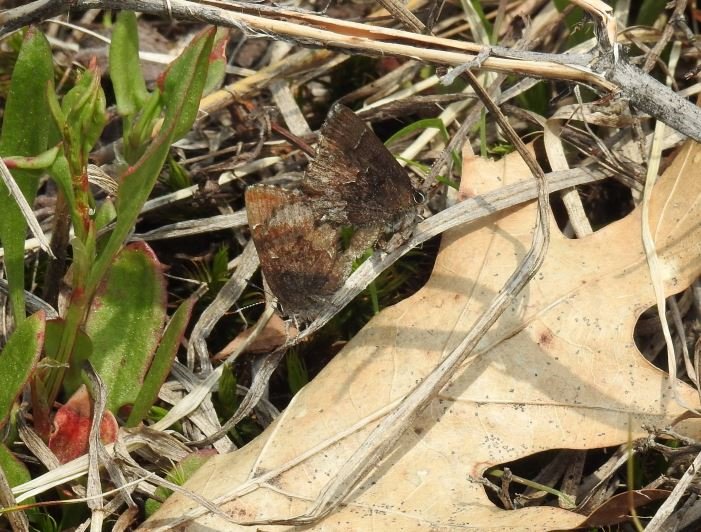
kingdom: Animalia
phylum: Arthropoda
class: Insecta
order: Lepidoptera
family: Lycaenidae
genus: Callophrys
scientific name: Callophrys polios
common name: Hoary Elfin
